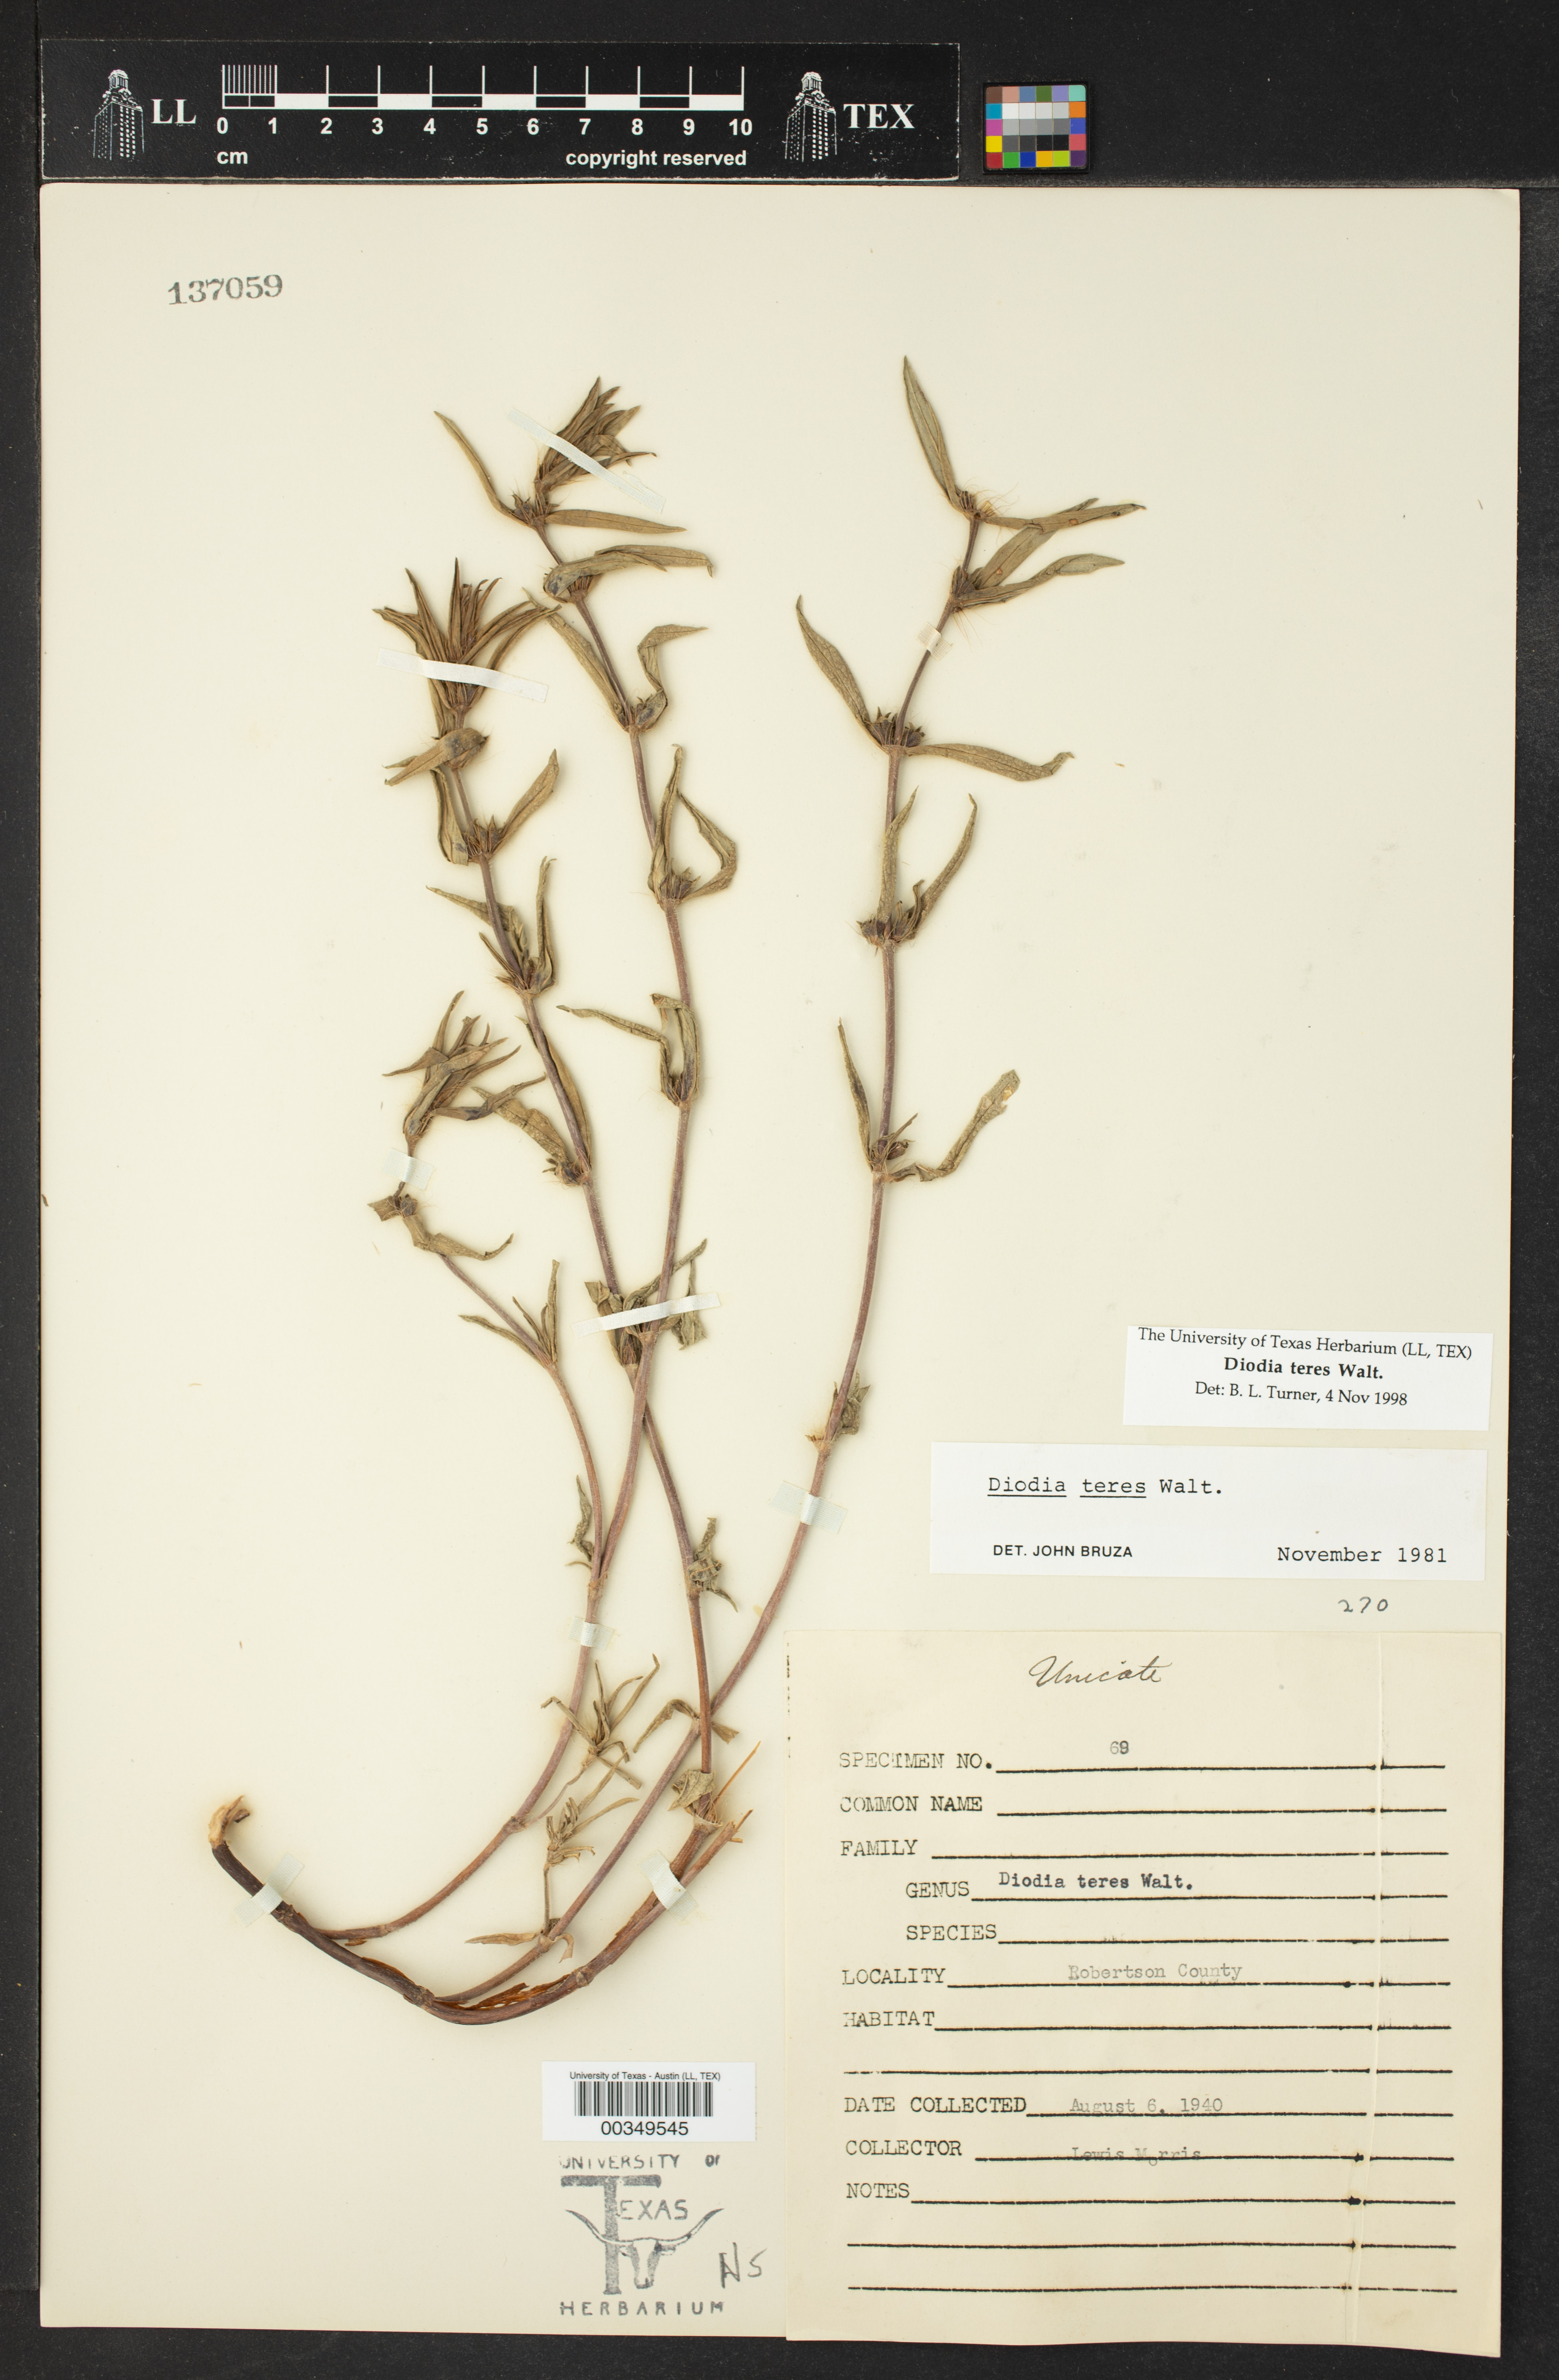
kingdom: Plantae
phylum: Tracheophyta
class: Magnoliopsida
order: Gentianales
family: Rubiaceae
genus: Hexasepalum
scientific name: Hexasepalum teres
